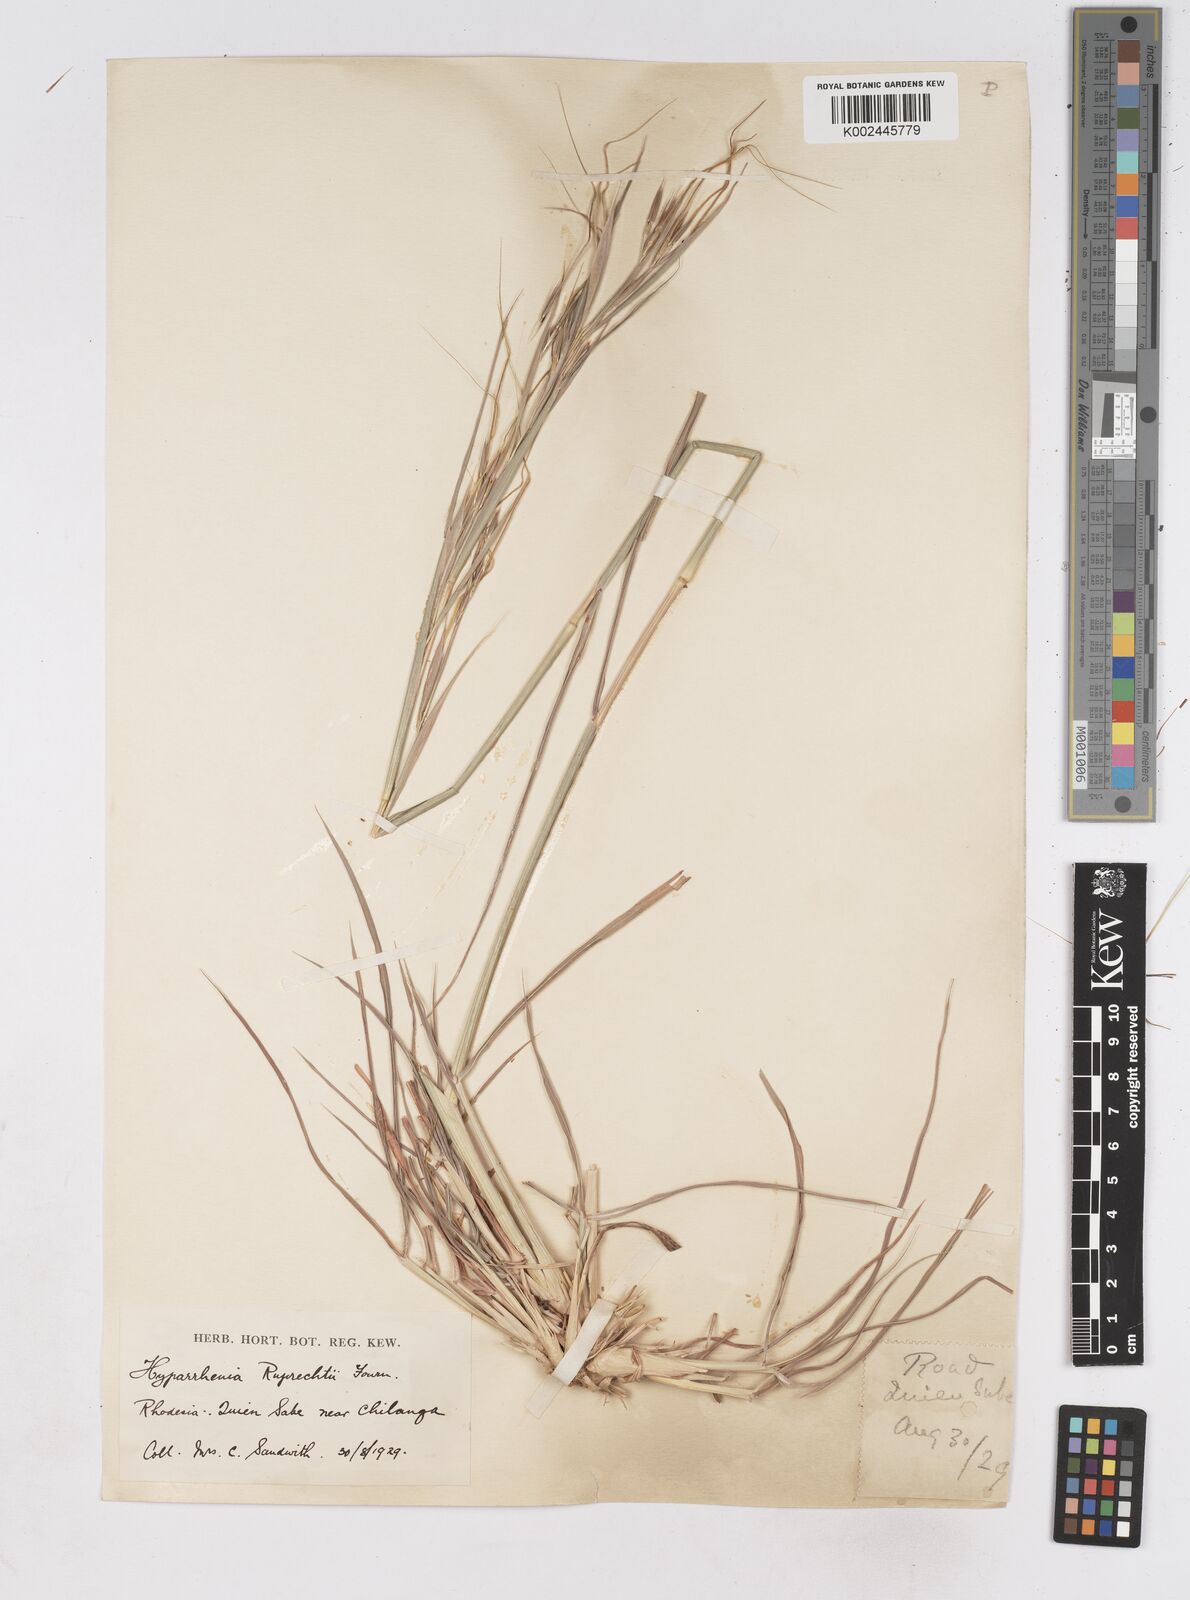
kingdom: Plantae
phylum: Tracheophyta
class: Liliopsida
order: Poales
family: Poaceae
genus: Hyperthelia
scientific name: Hyperthelia dissoluta
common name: Yellow thatching grass
